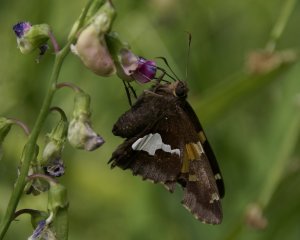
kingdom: Animalia
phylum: Arthropoda
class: Insecta
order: Lepidoptera
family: Hesperiidae
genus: Epargyreus
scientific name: Epargyreus clarus
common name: Silver-spotted Skipper
